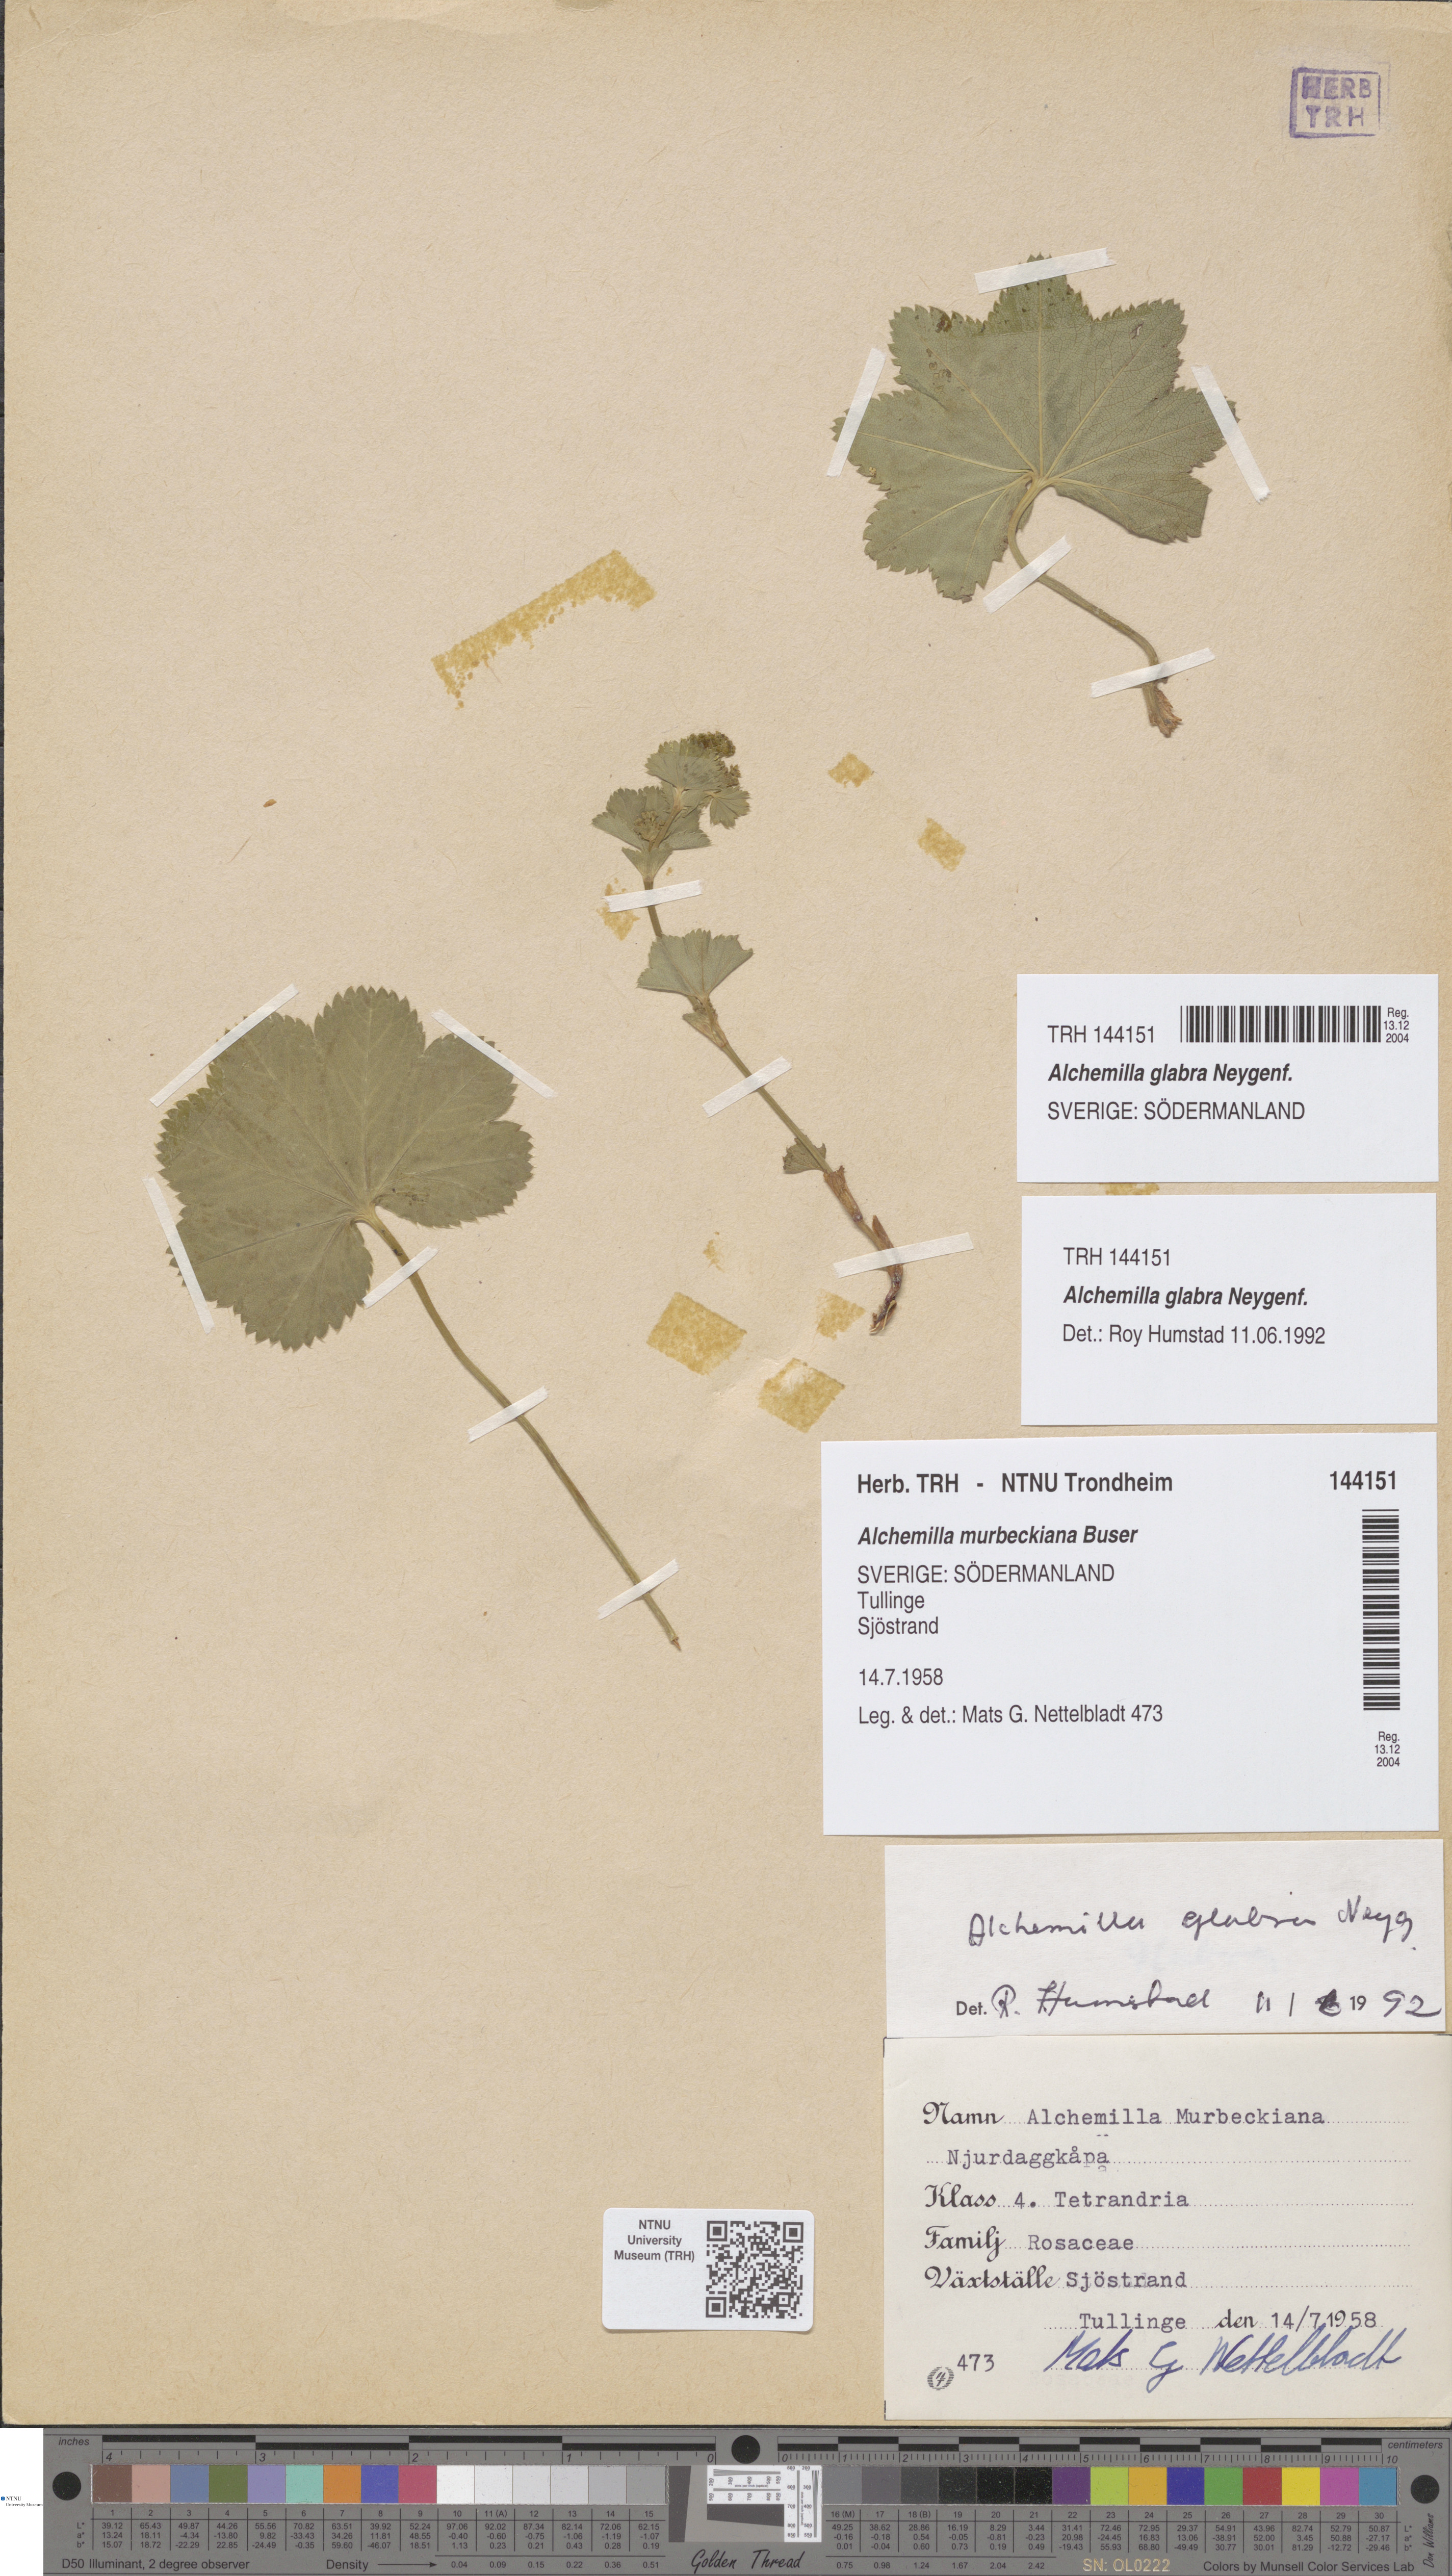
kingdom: Plantae
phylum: Tracheophyta
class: Magnoliopsida
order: Rosales
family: Rosaceae
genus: Alchemilla
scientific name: Alchemilla glabra
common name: Smooth lady's-mantle
